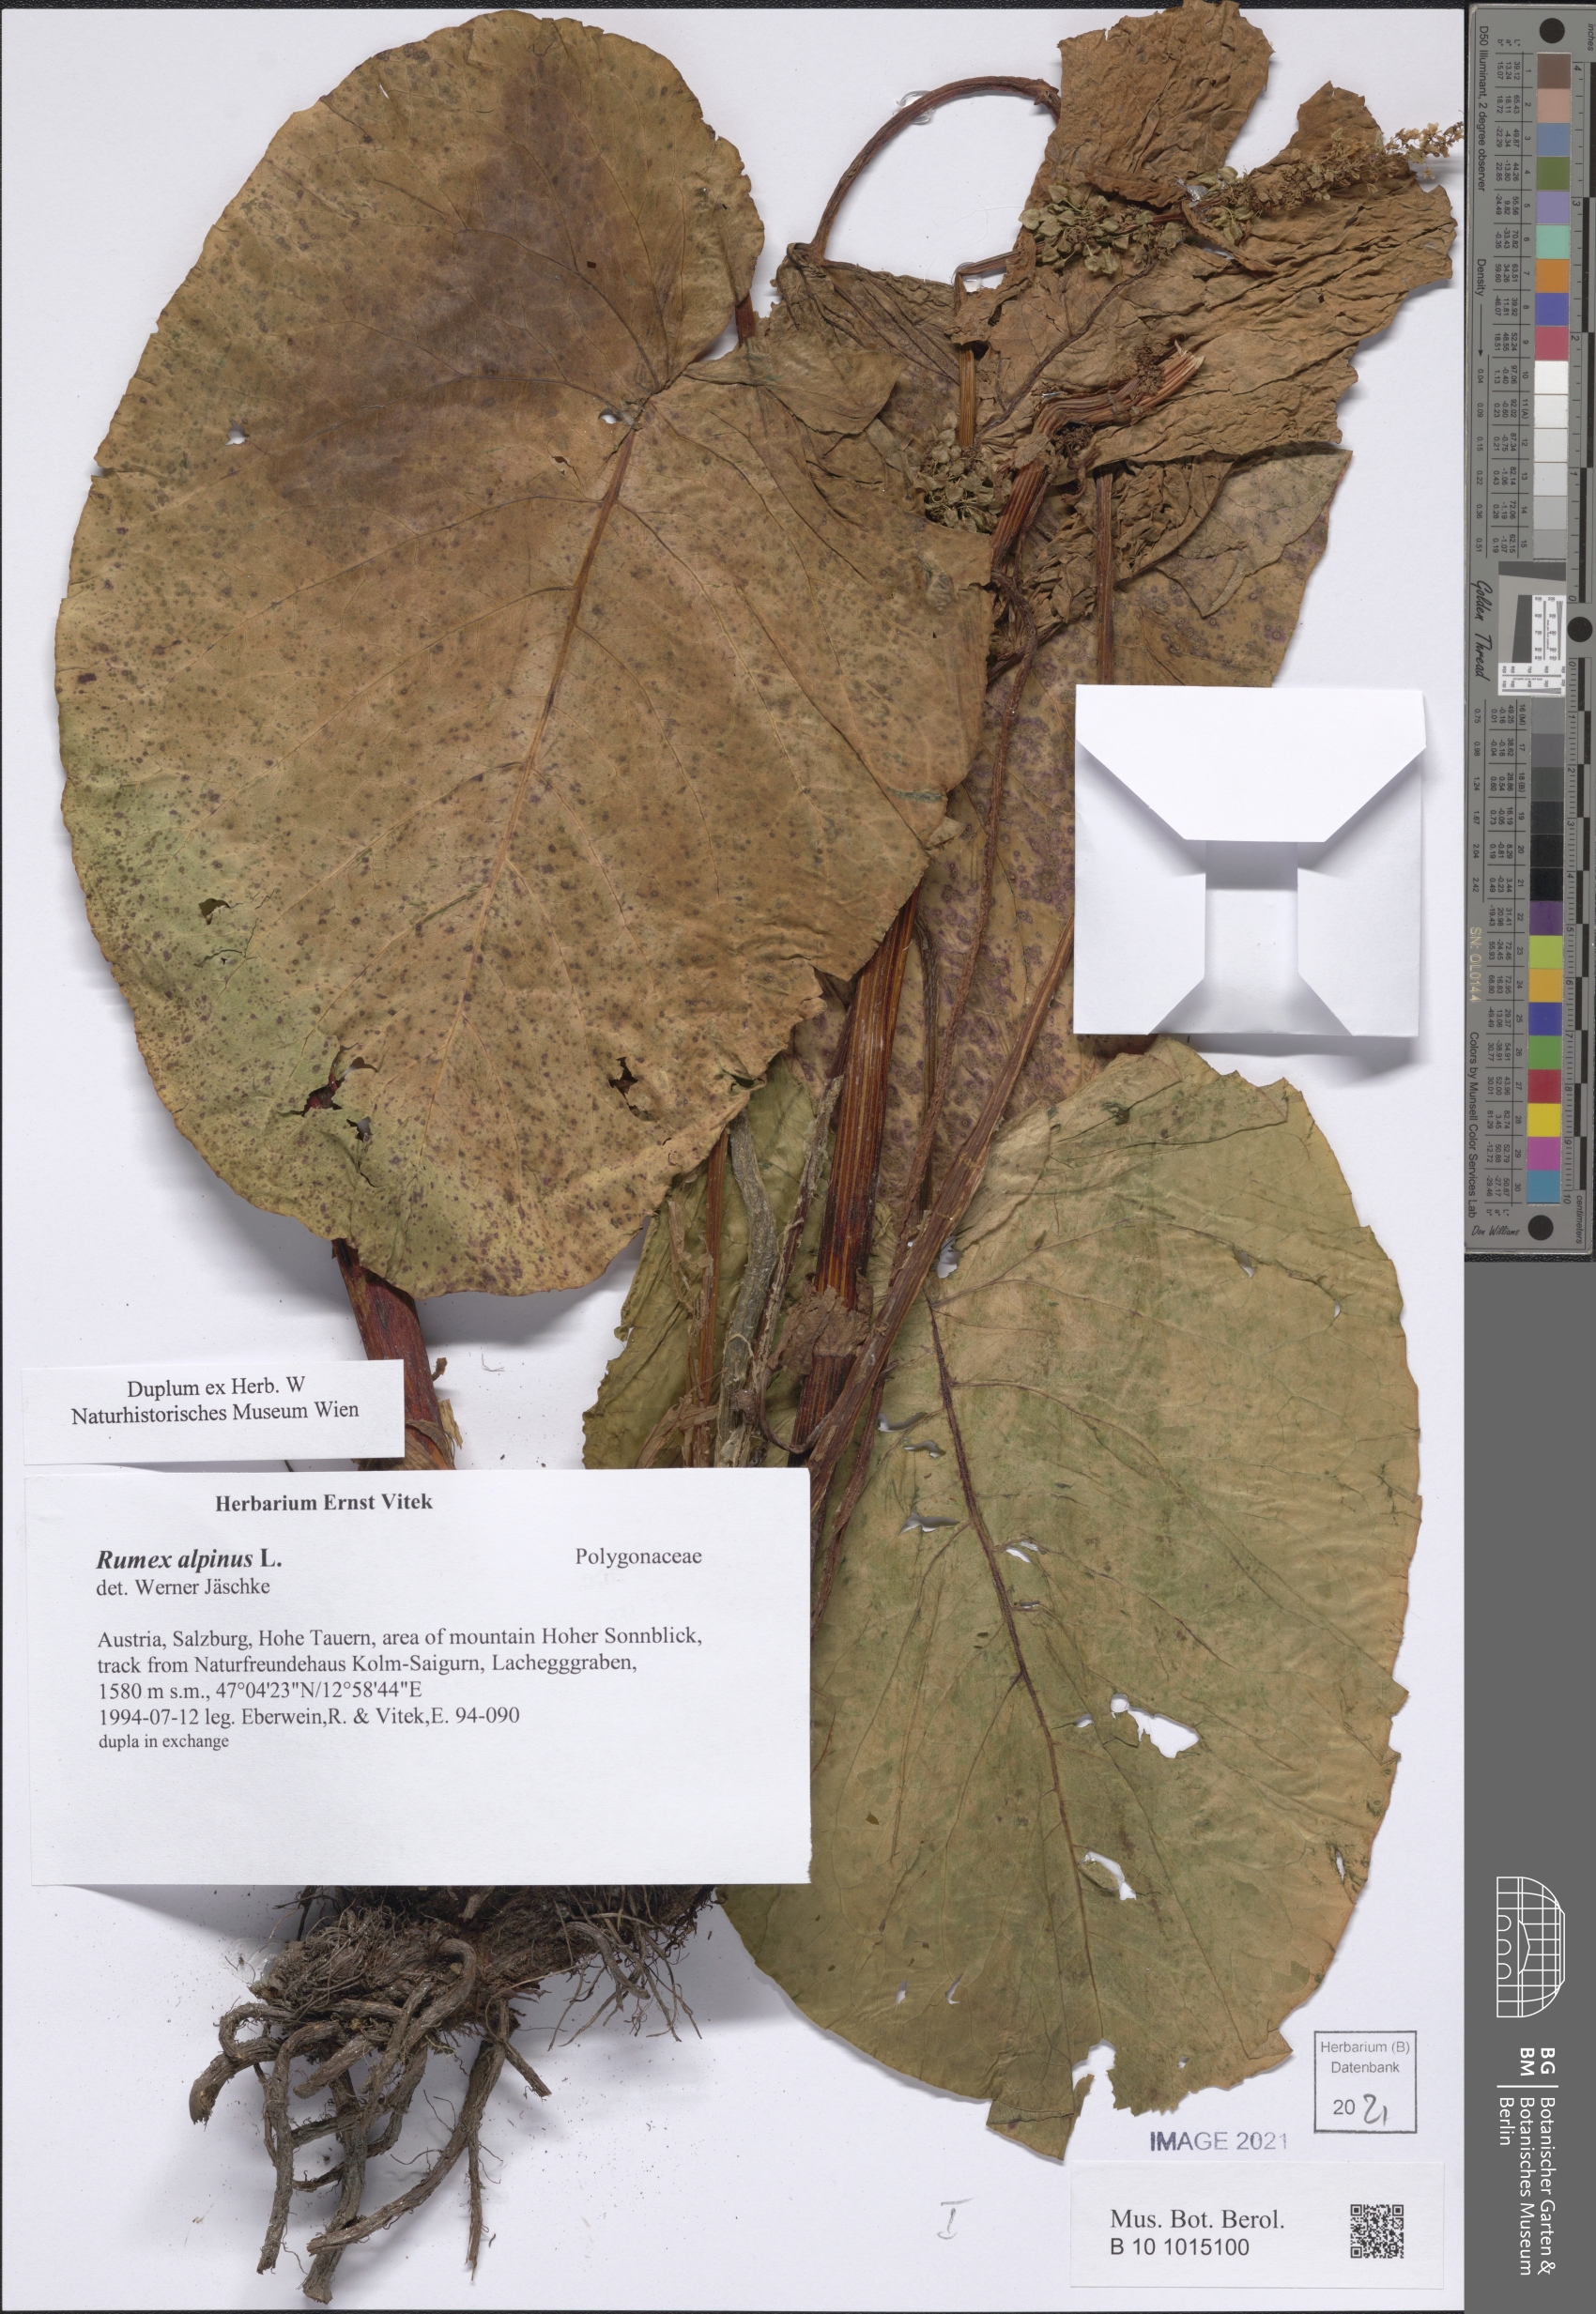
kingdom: Plantae
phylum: Tracheophyta
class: Magnoliopsida
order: Caryophyllales
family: Polygonaceae
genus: Rumex
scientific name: Rumex alpinus
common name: Alpine dock
